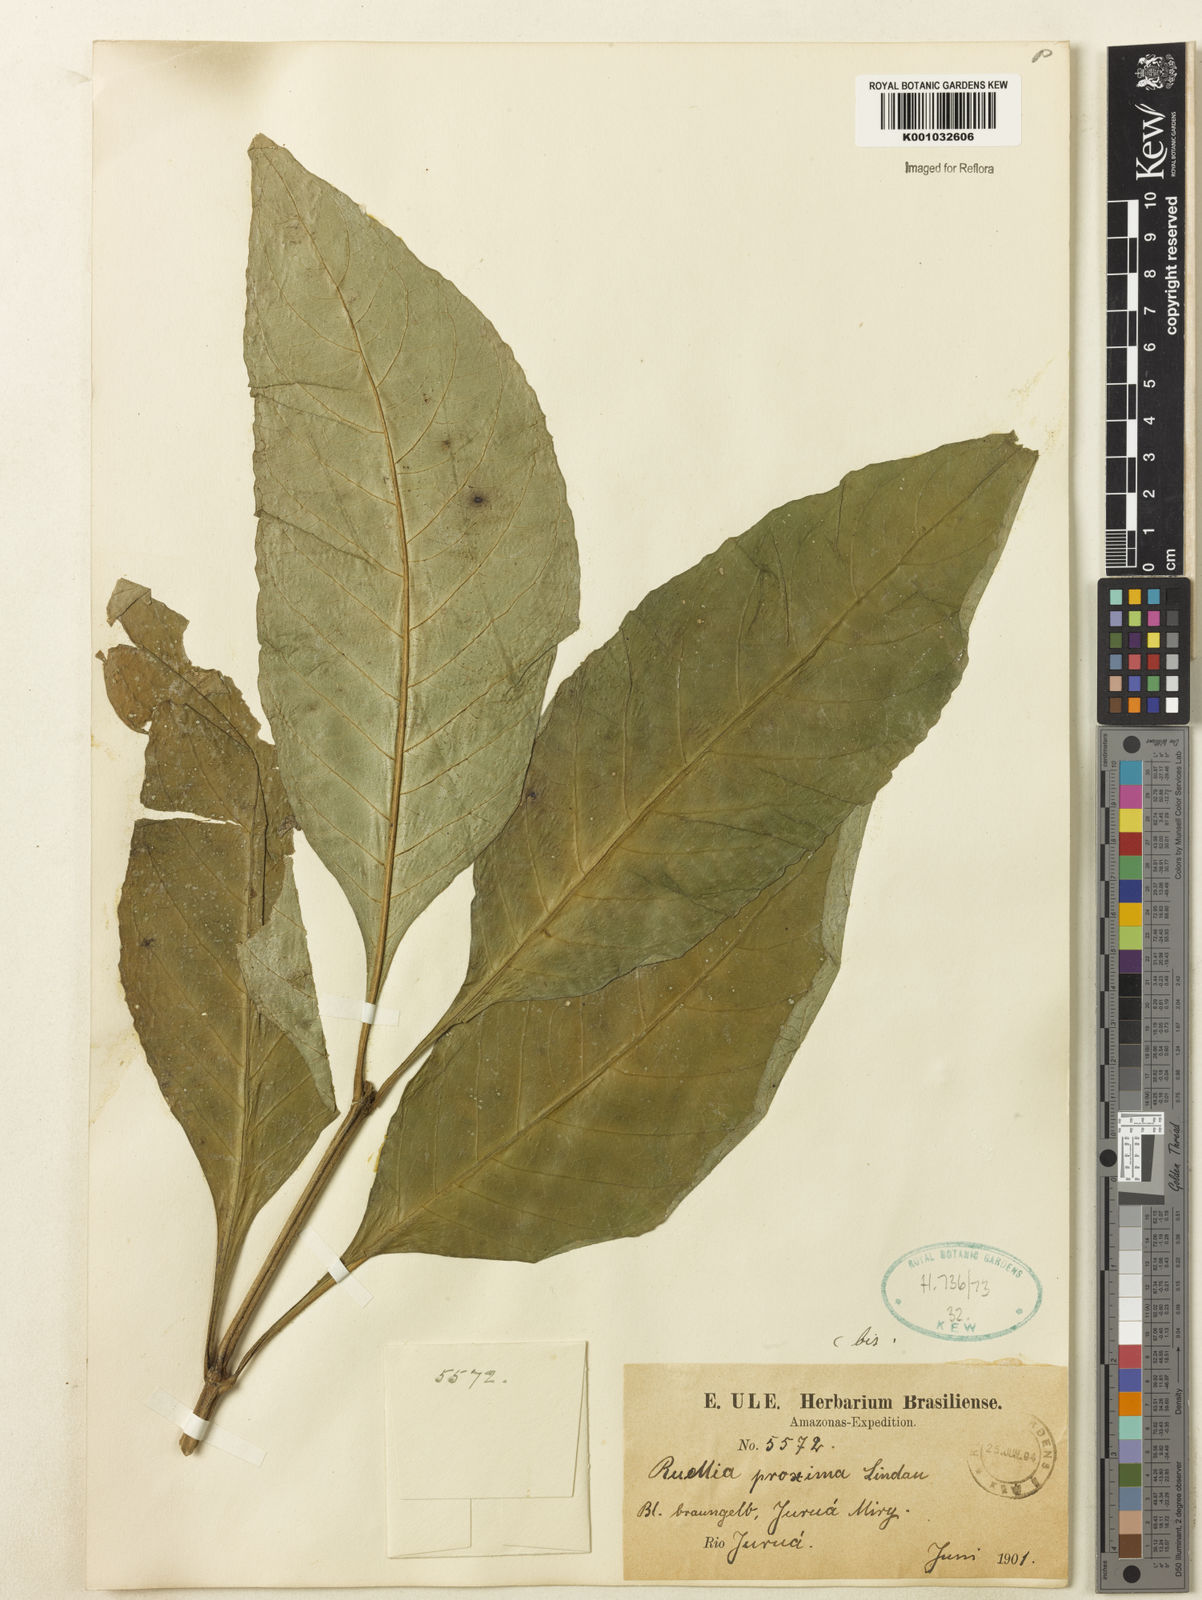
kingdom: Plantae
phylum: Tracheophyta
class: Magnoliopsida
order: Lamiales
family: Acanthaceae
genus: Ruellia
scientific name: Ruellia proxima
